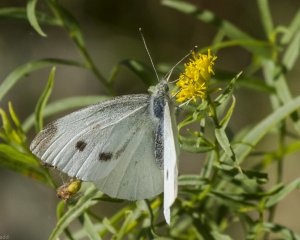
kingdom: Animalia
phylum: Arthropoda
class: Insecta
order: Lepidoptera
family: Pieridae
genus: Pieris
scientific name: Pieris rapae
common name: Cabbage White
